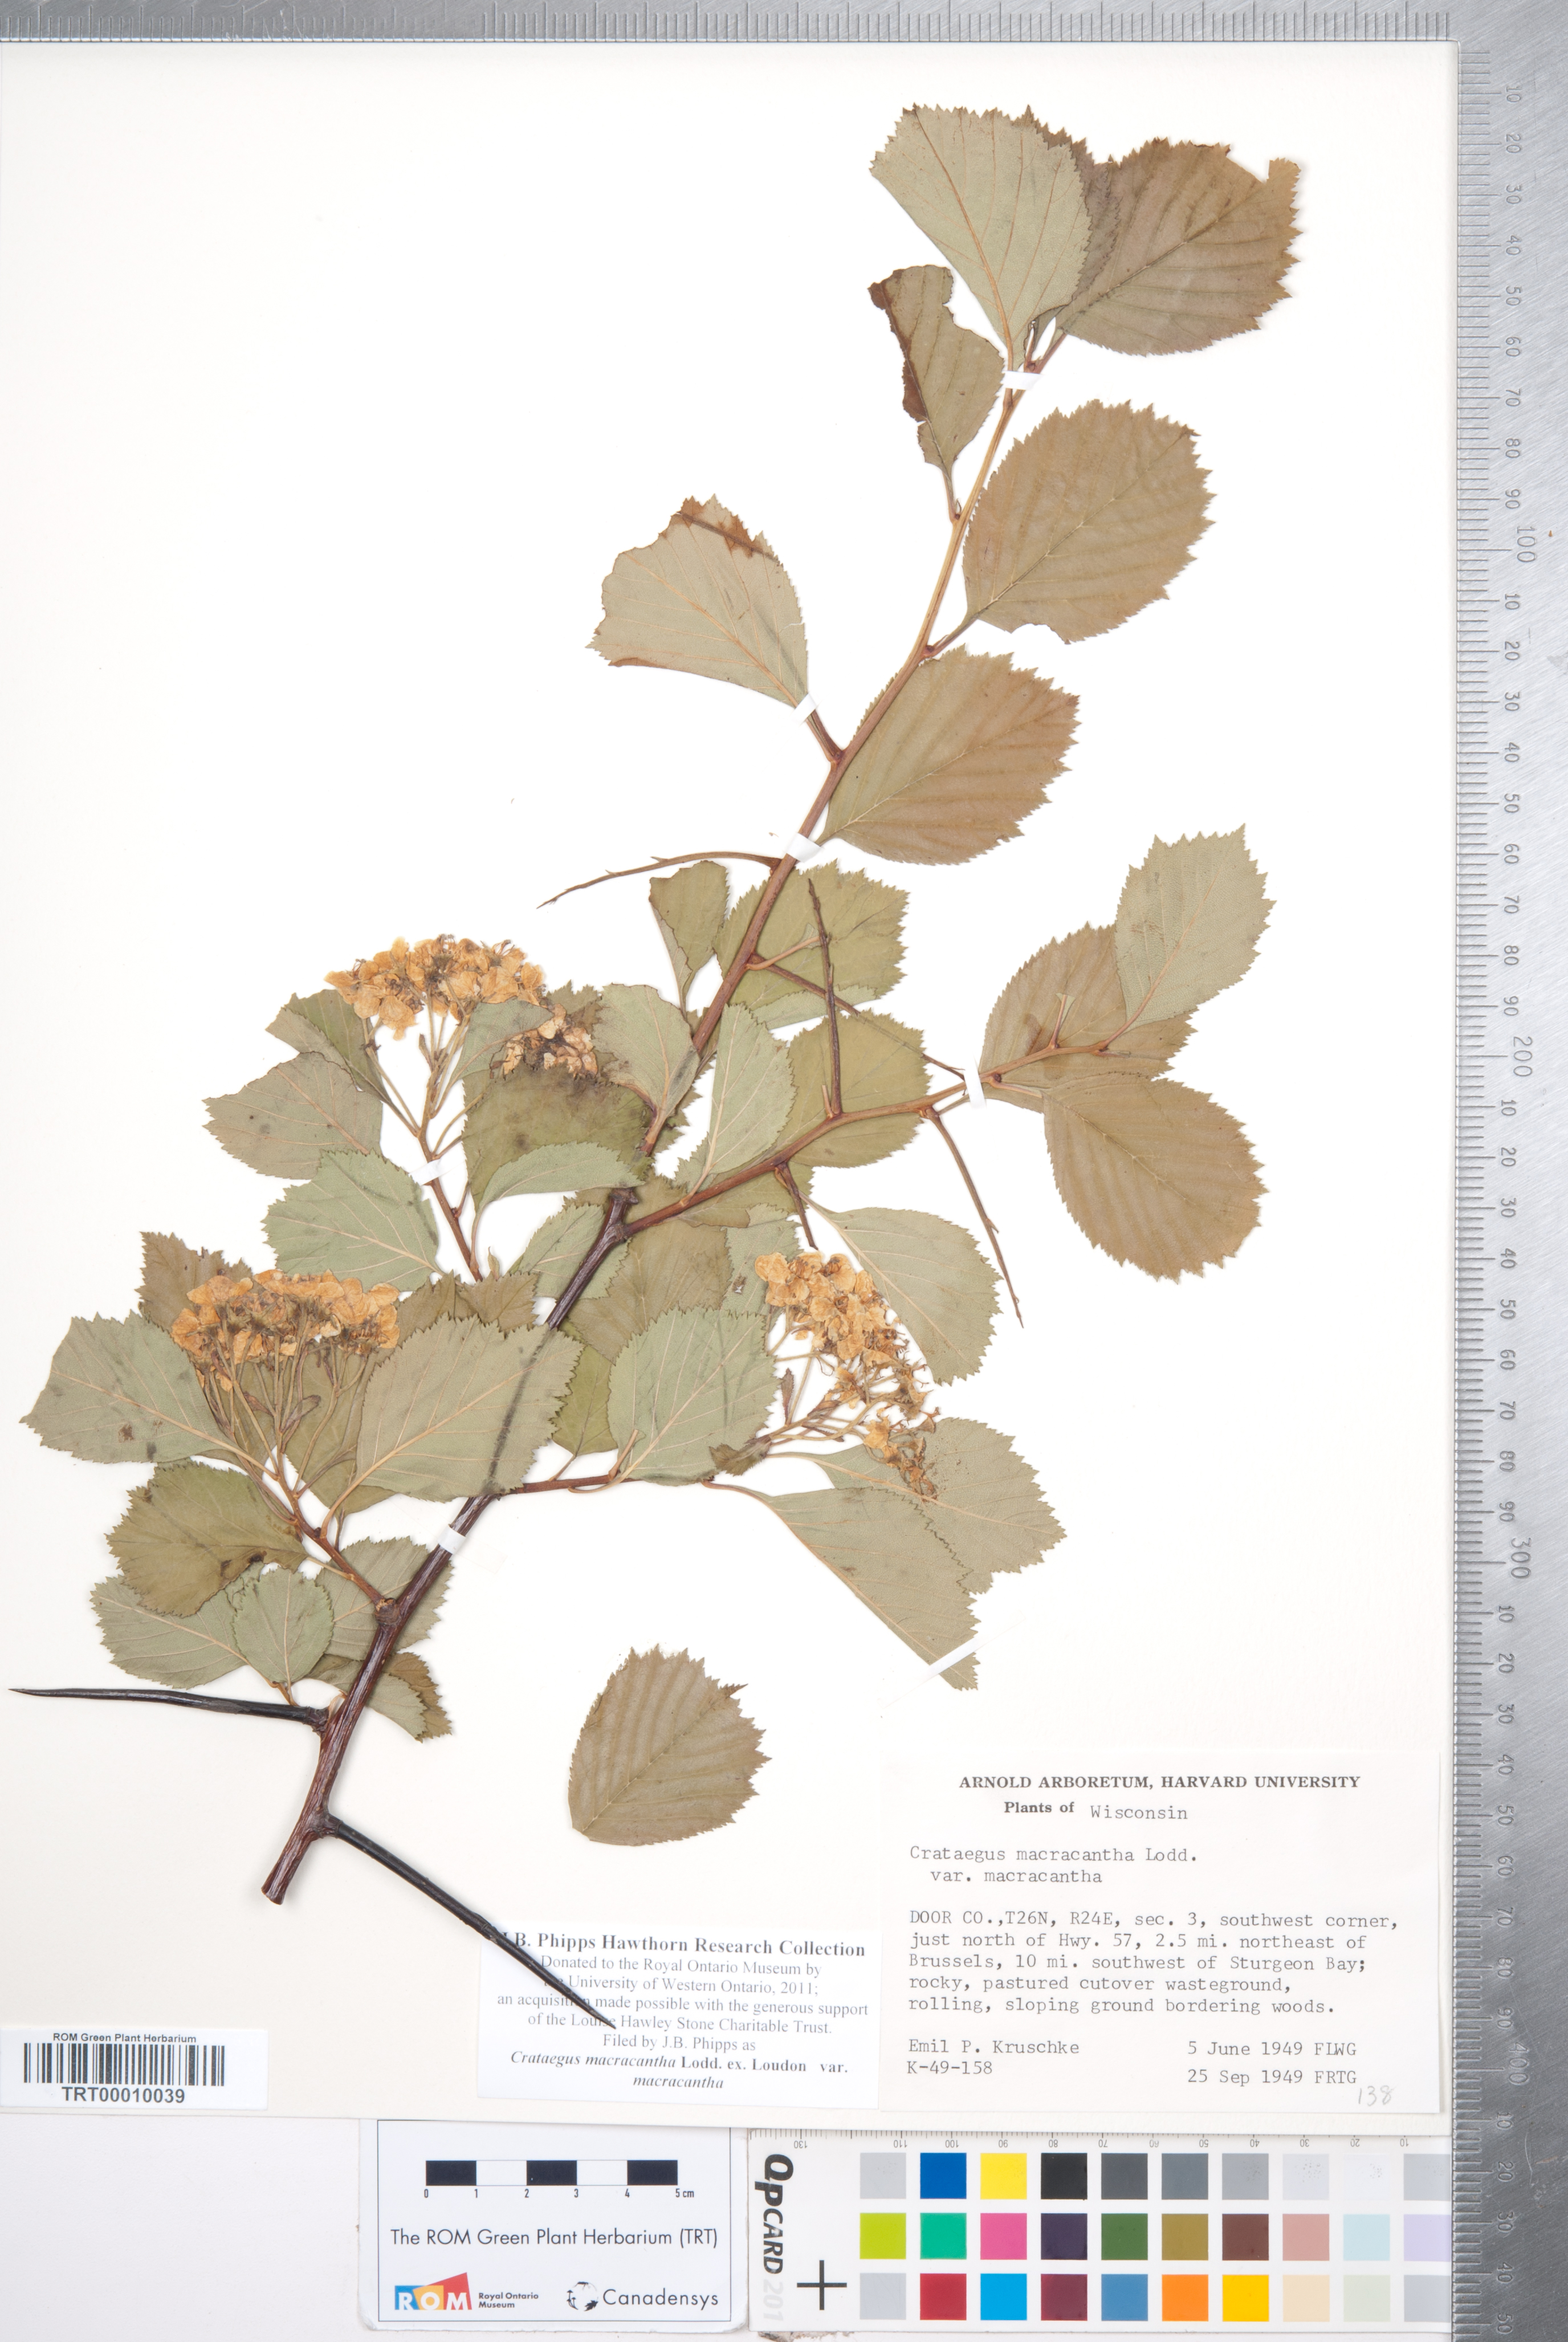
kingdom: Plantae
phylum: Tracheophyta
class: Magnoliopsida
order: Rosales
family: Rosaceae
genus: Crataegus
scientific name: Crataegus macracantha
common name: Large-thorn hawthorn
